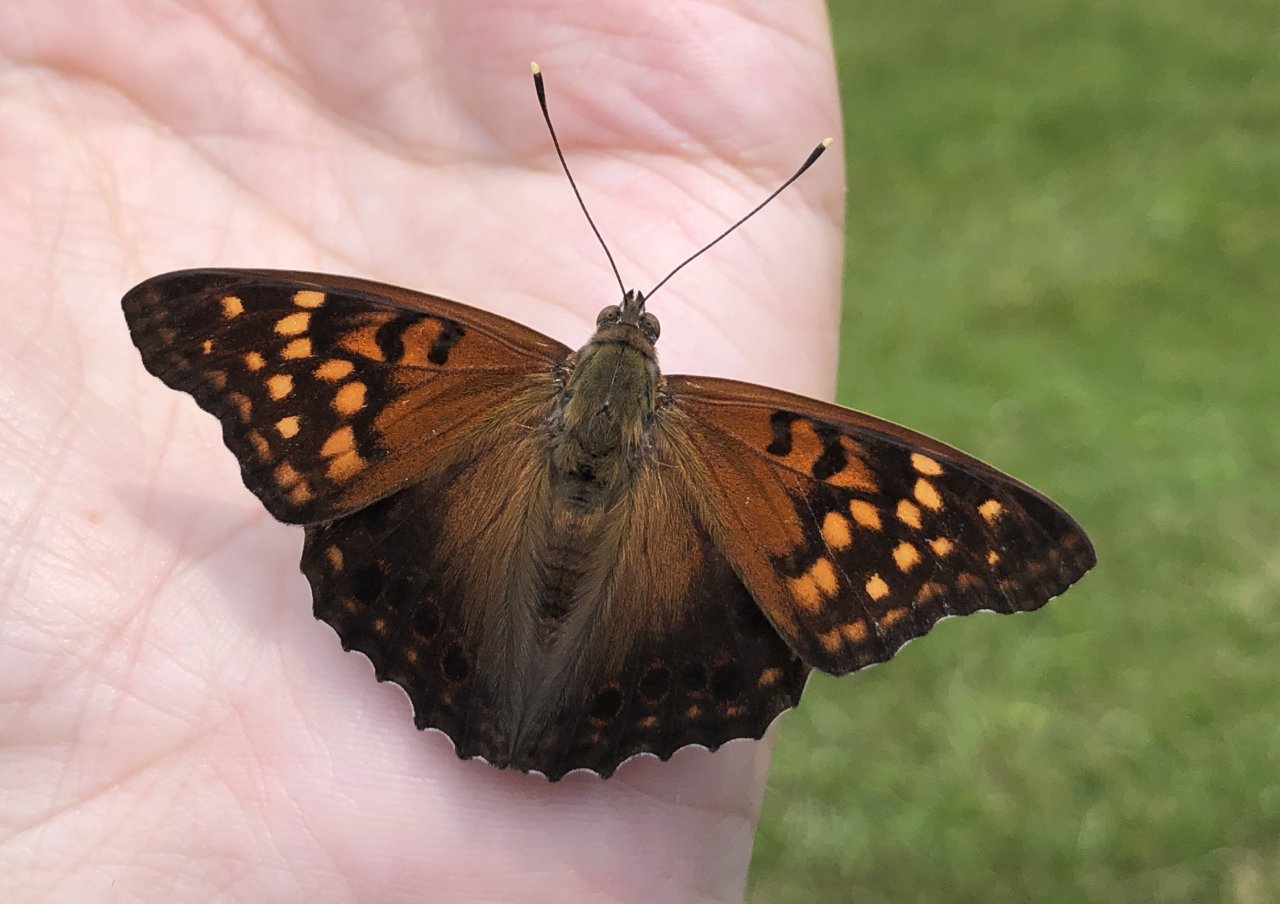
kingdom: Animalia
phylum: Arthropoda
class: Insecta
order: Lepidoptera
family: Nymphalidae
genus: Asterocampa
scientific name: Asterocampa clyton
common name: Tawny Emperor
